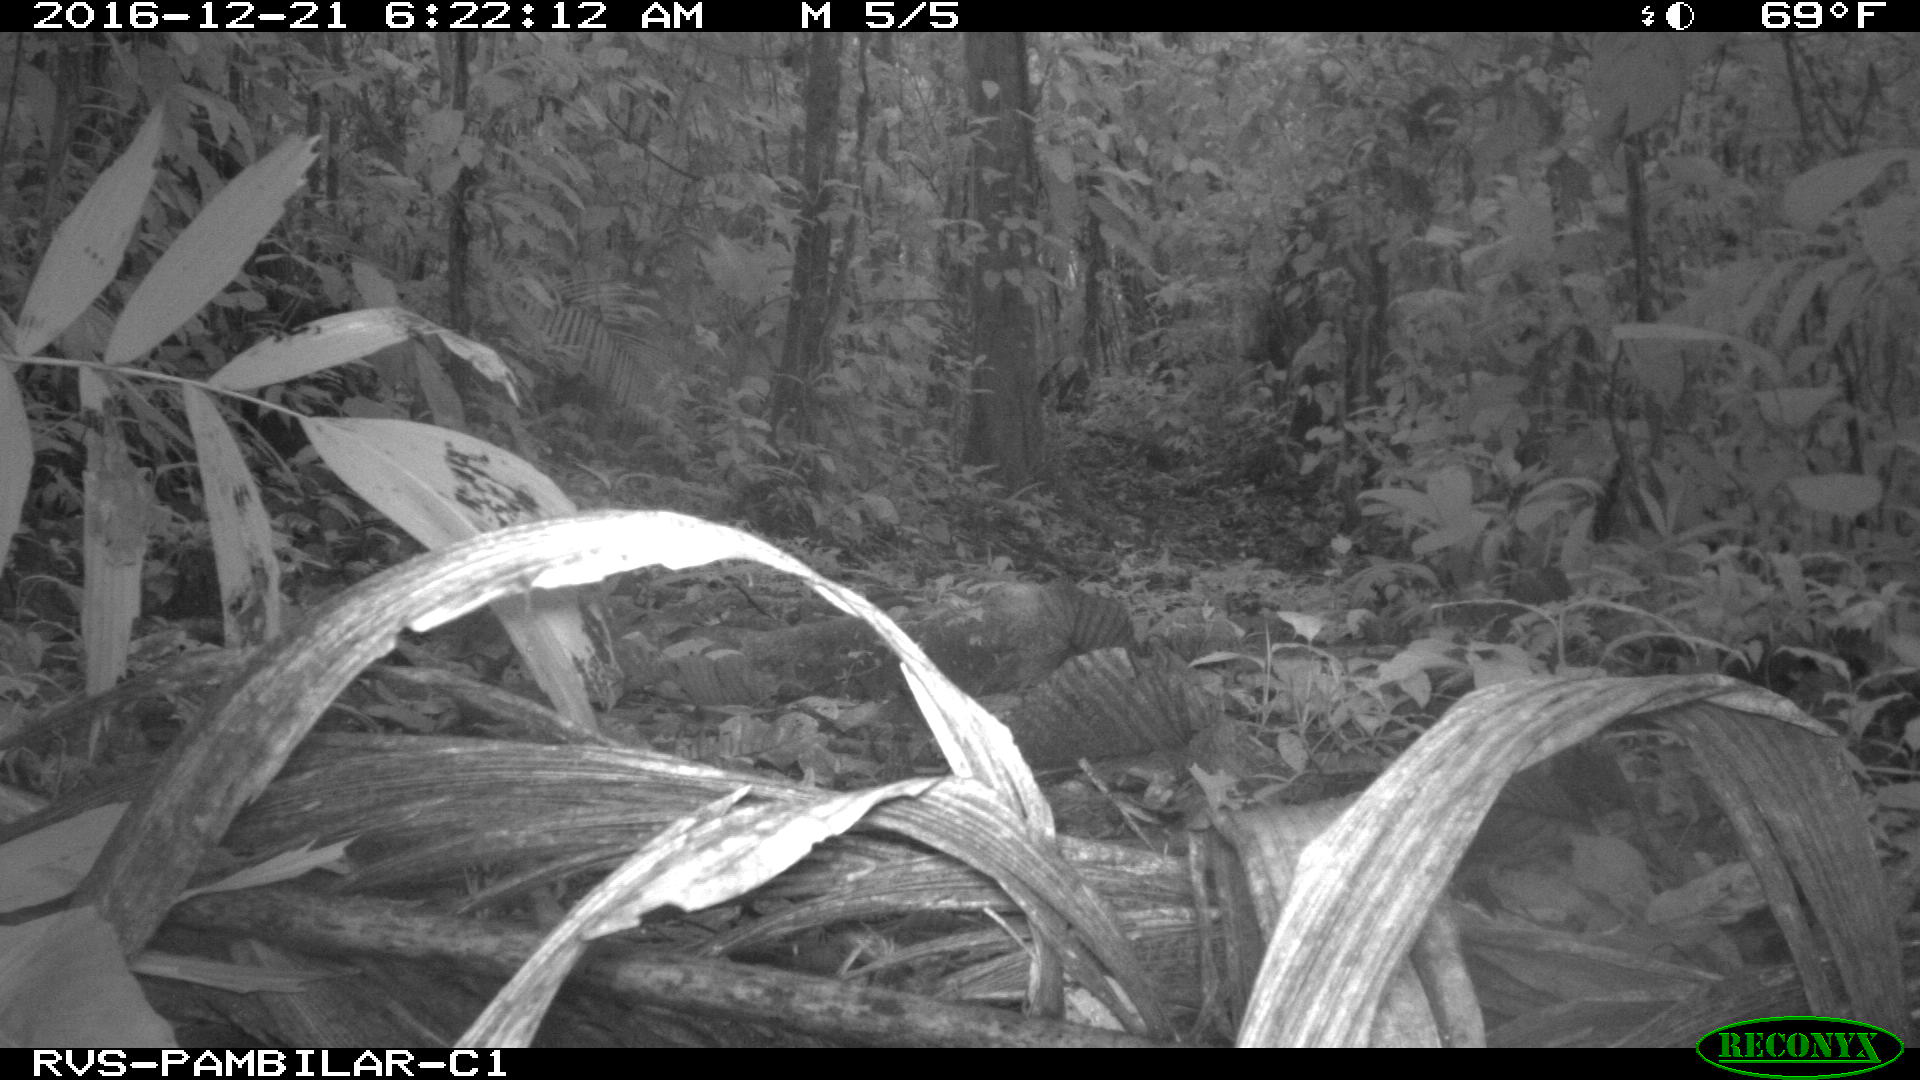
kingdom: Animalia
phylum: Chordata
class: Mammalia
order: Rodentia
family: Dasyproctidae
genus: Dasyprocta
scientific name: Dasyprocta punctata
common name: Central american agouti
